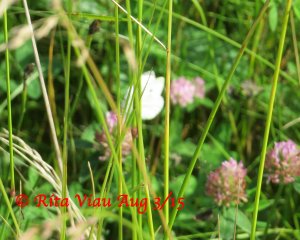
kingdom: Animalia
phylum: Arthropoda
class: Insecta
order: Lepidoptera
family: Pieridae
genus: Pieris
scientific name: Pieris rapae
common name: Cabbage White
